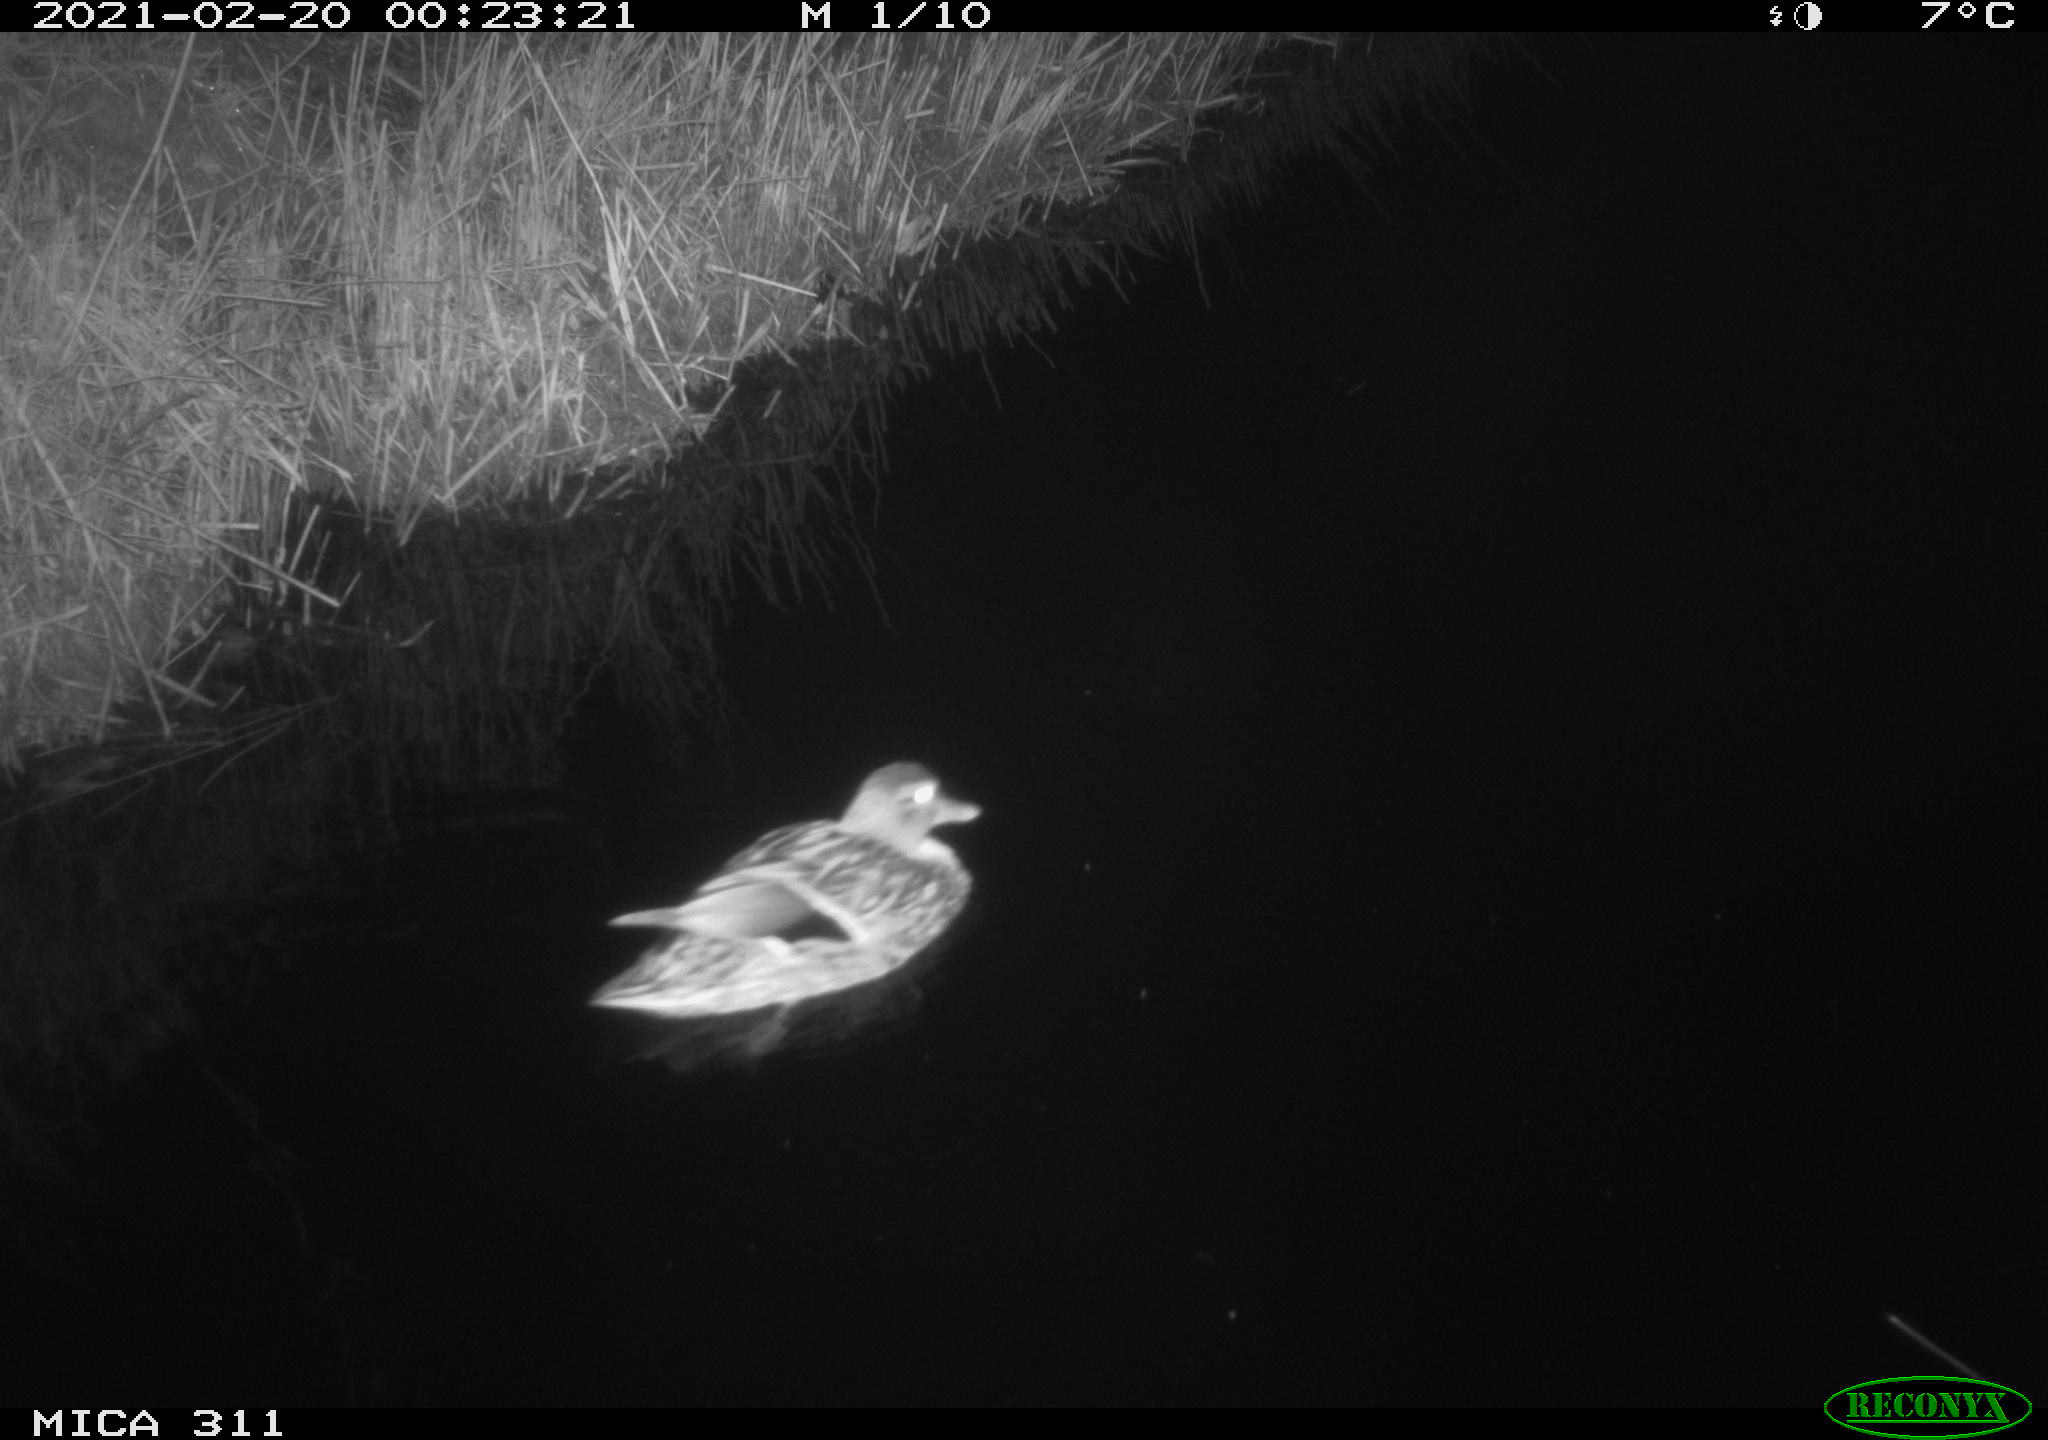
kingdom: Animalia
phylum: Chordata
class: Aves
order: Anseriformes
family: Anatidae
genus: Anas
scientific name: Anas
